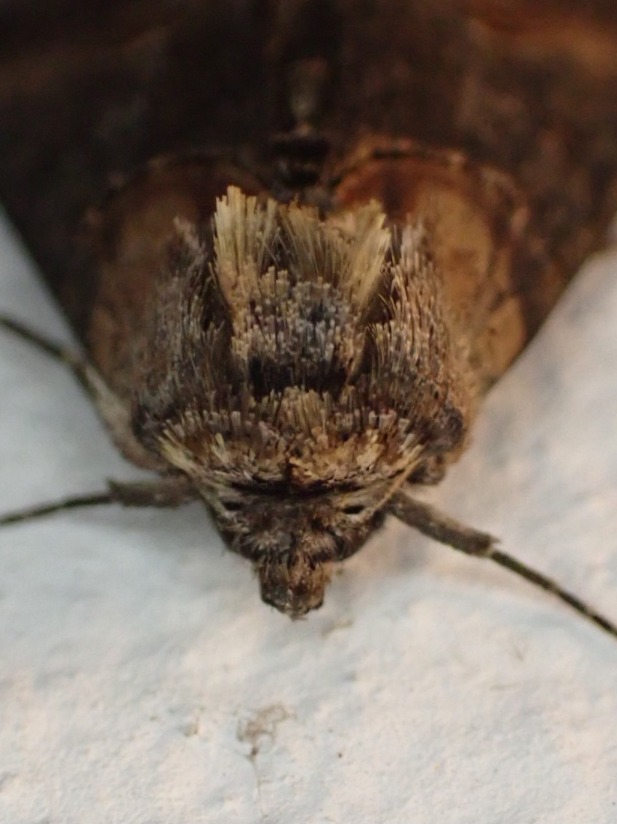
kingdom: Animalia
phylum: Arthropoda
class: Insecta
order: Lepidoptera
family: Noctuidae
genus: Abrostola
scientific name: Abrostola triplasia
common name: Brun nælde-brilleugle
